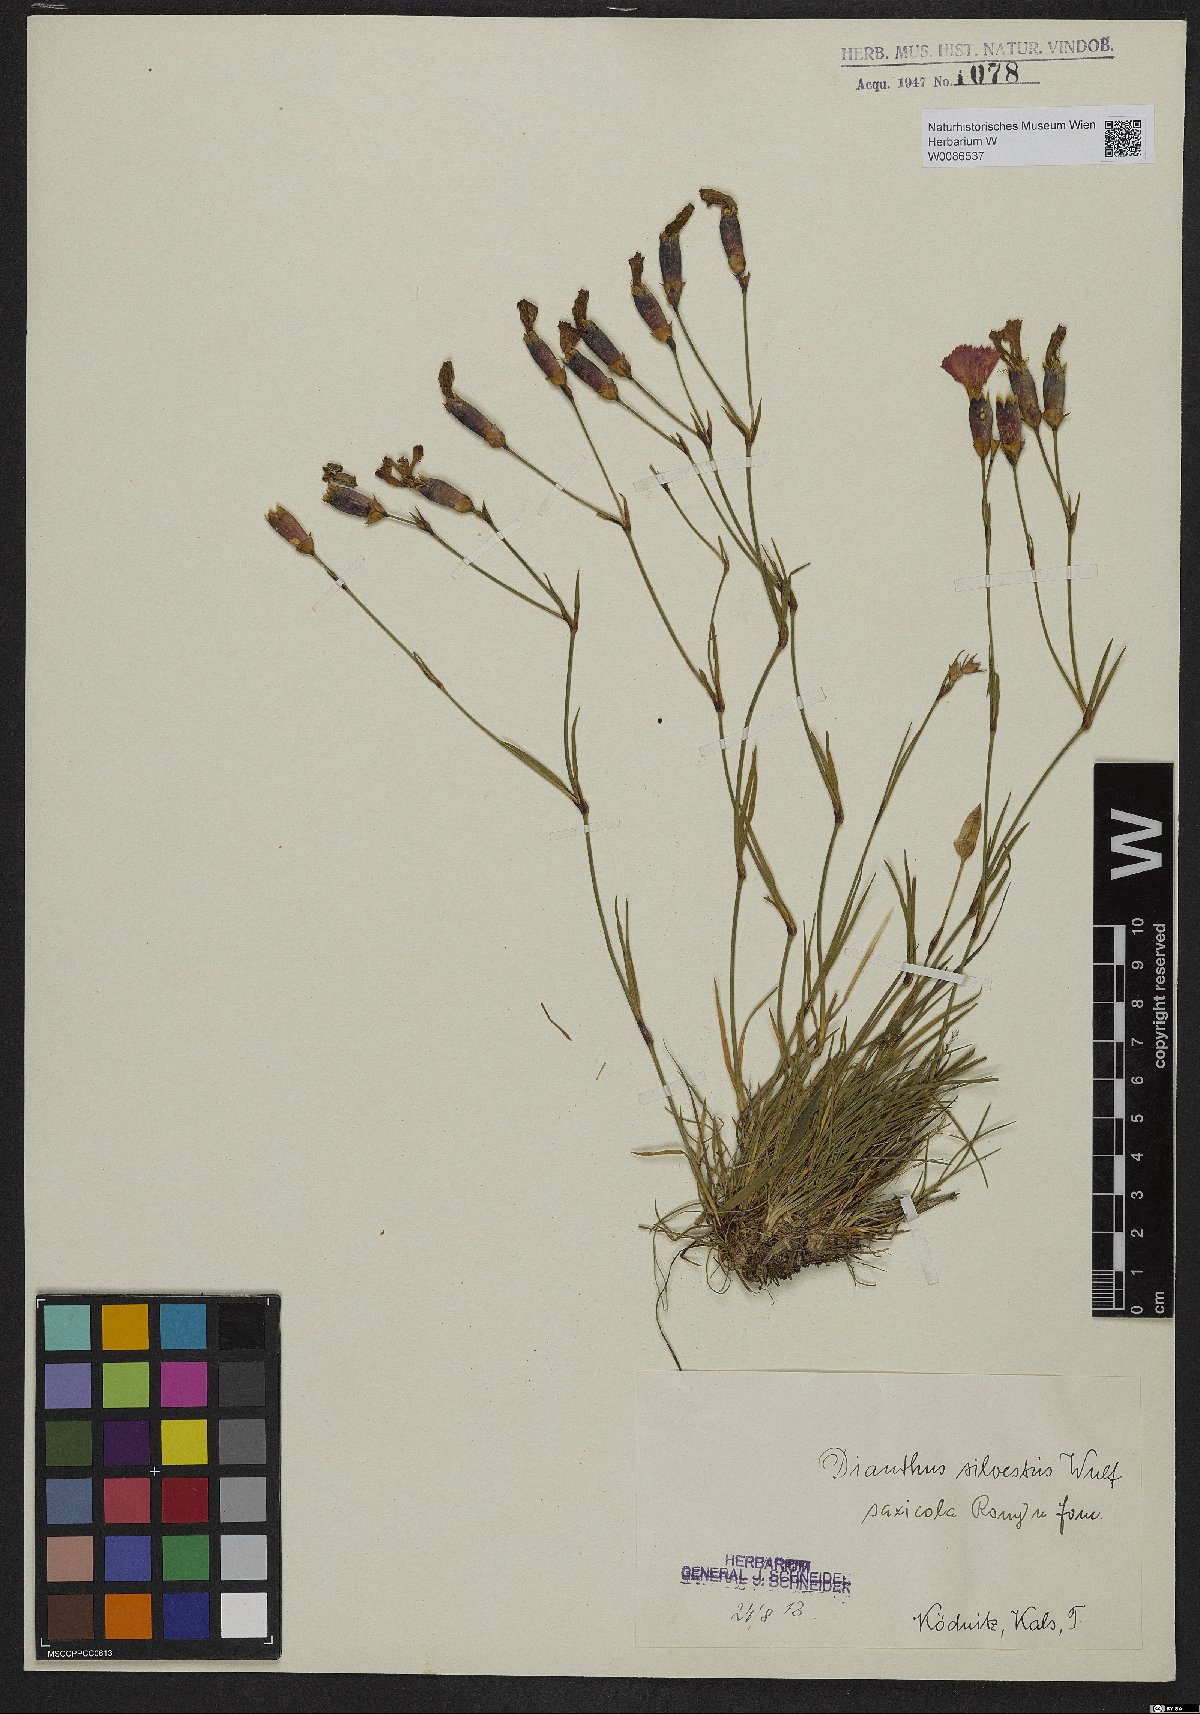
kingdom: Plantae
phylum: Tracheophyta
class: Magnoliopsida
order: Caryophyllales
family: Caryophyllaceae
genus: Dianthus
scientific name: Dianthus sylvestris
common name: Wood pink
